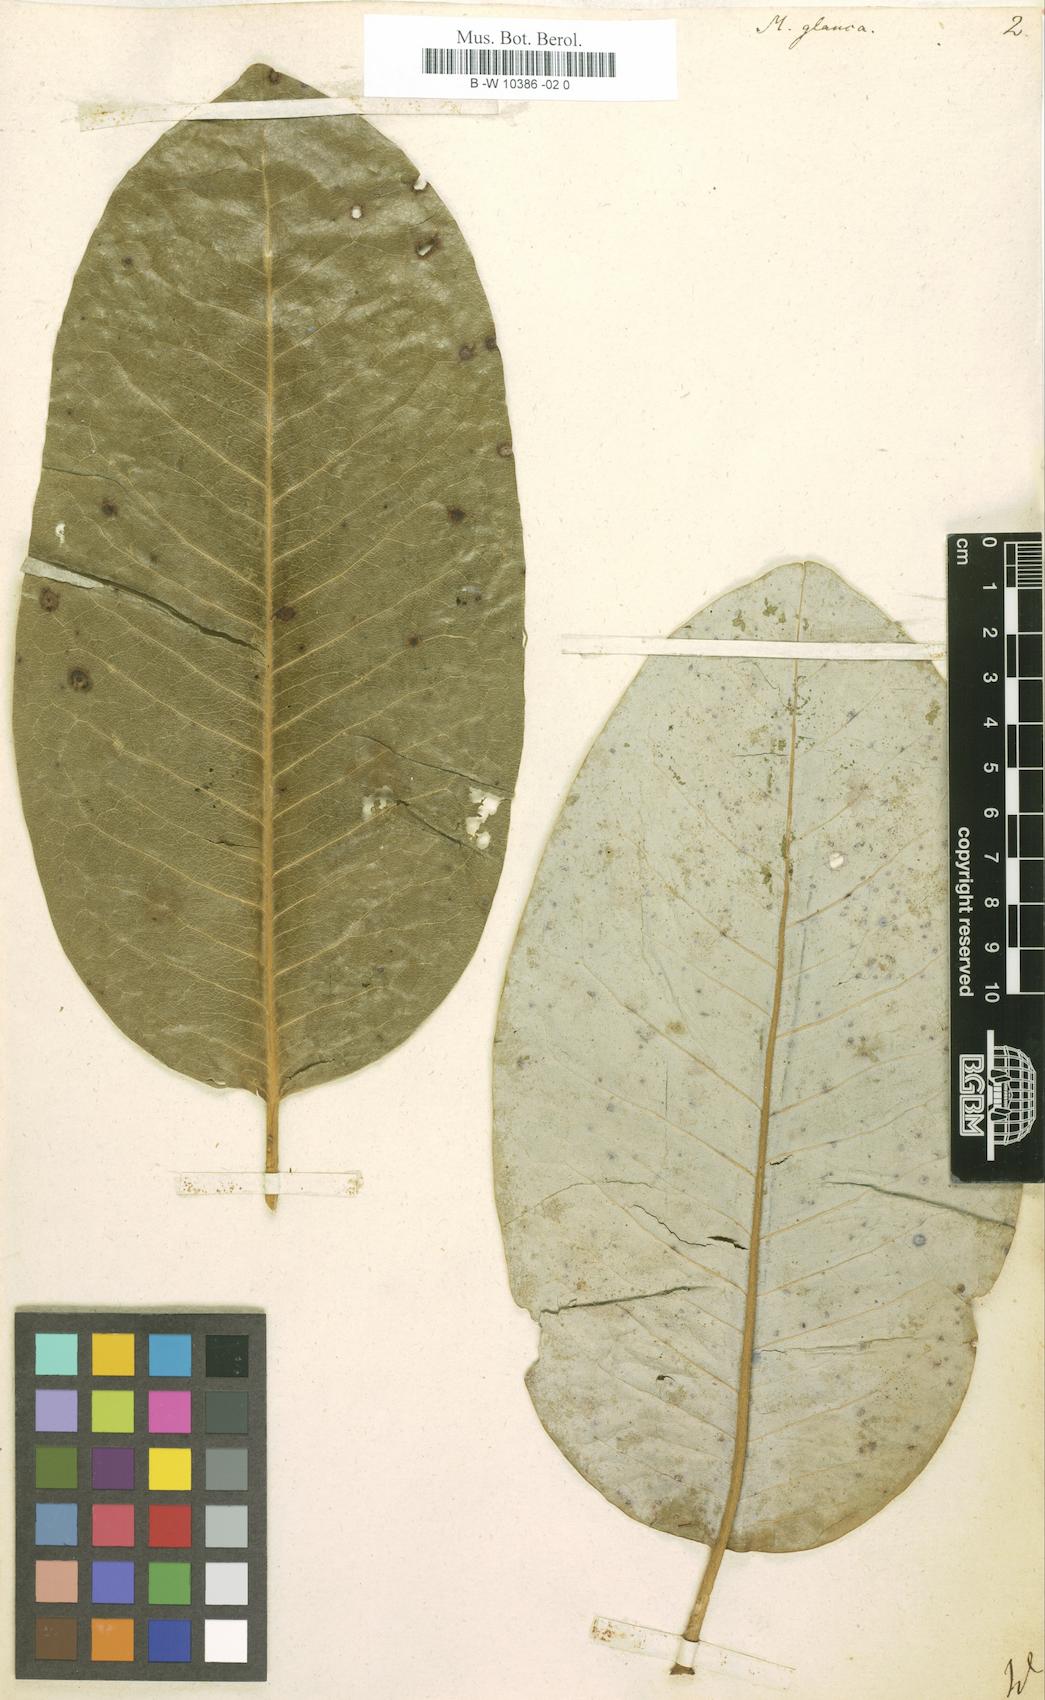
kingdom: Plantae
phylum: Tracheophyta
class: Magnoliopsida
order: Magnoliales
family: Magnoliaceae
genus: Magnolia
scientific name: Magnolia
